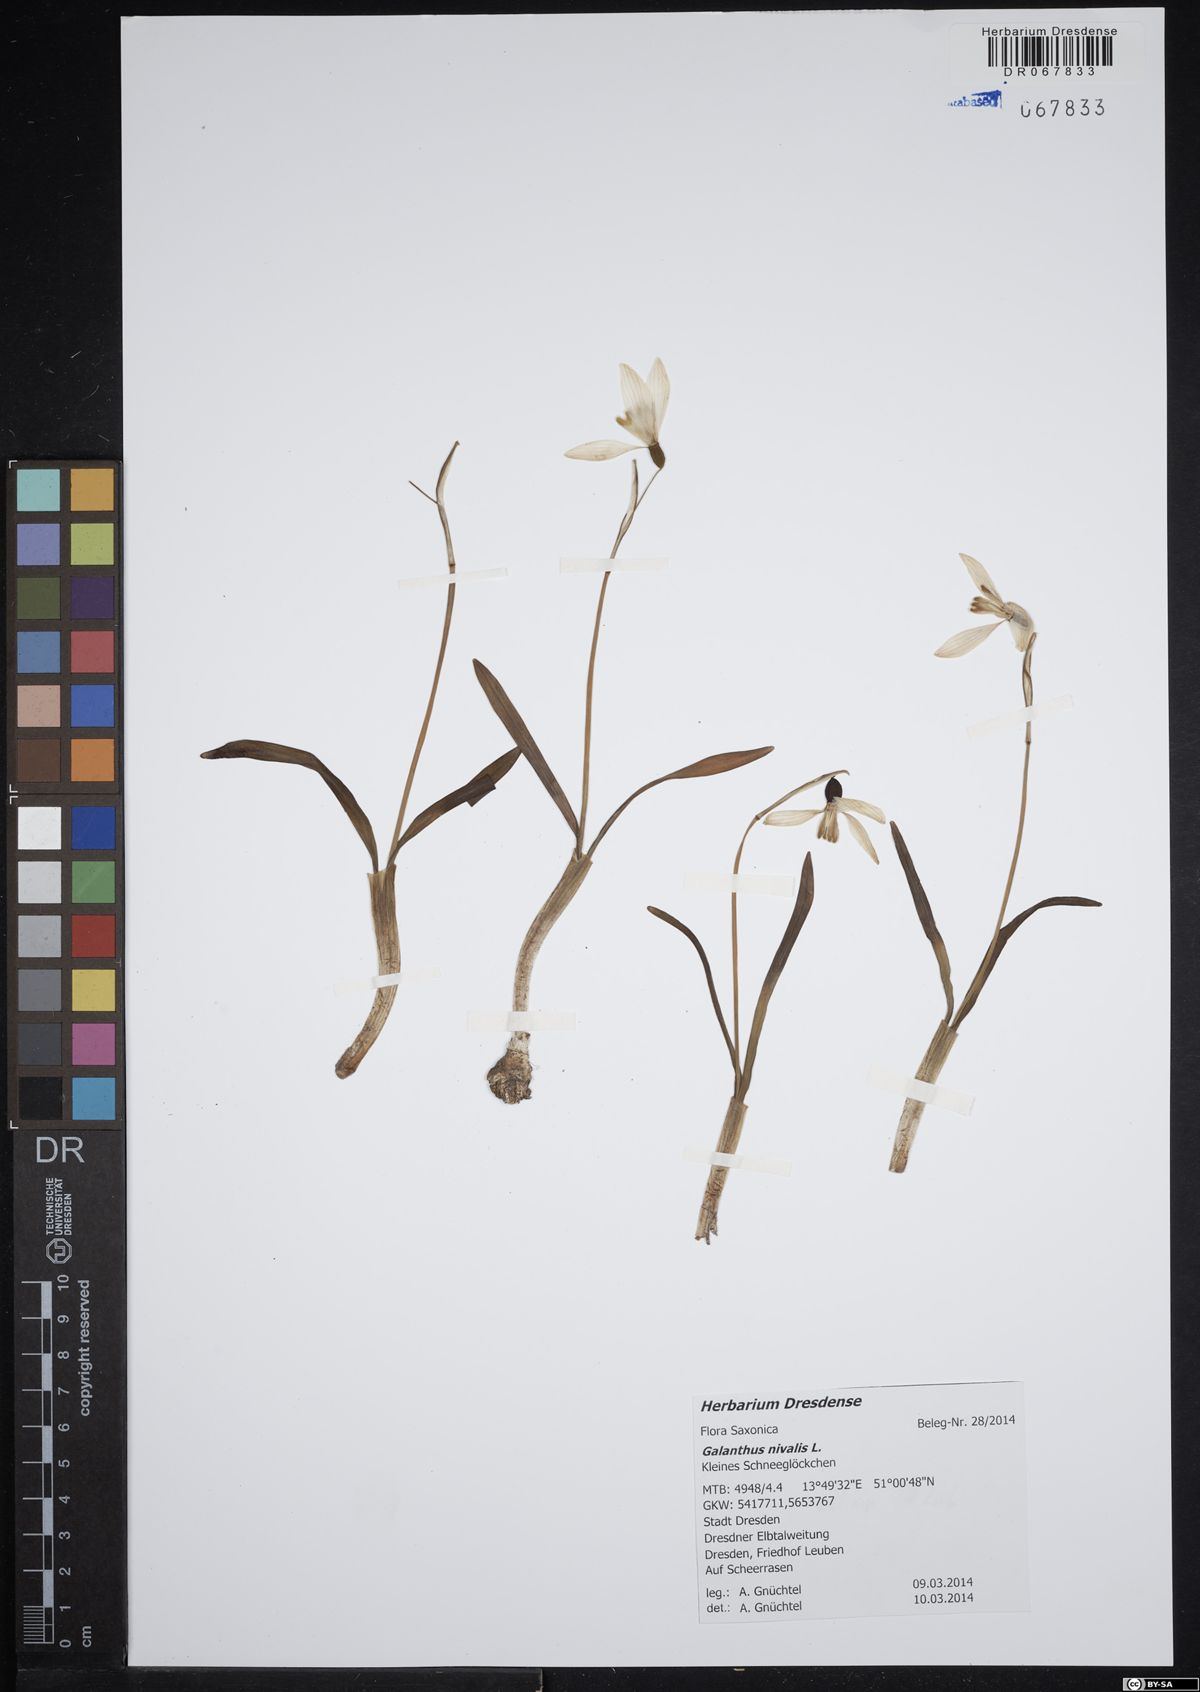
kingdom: Plantae
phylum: Tracheophyta
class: Liliopsida
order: Asparagales
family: Amaryllidaceae
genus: Galanthus
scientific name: Galanthus nivalis
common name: Snowdrop
